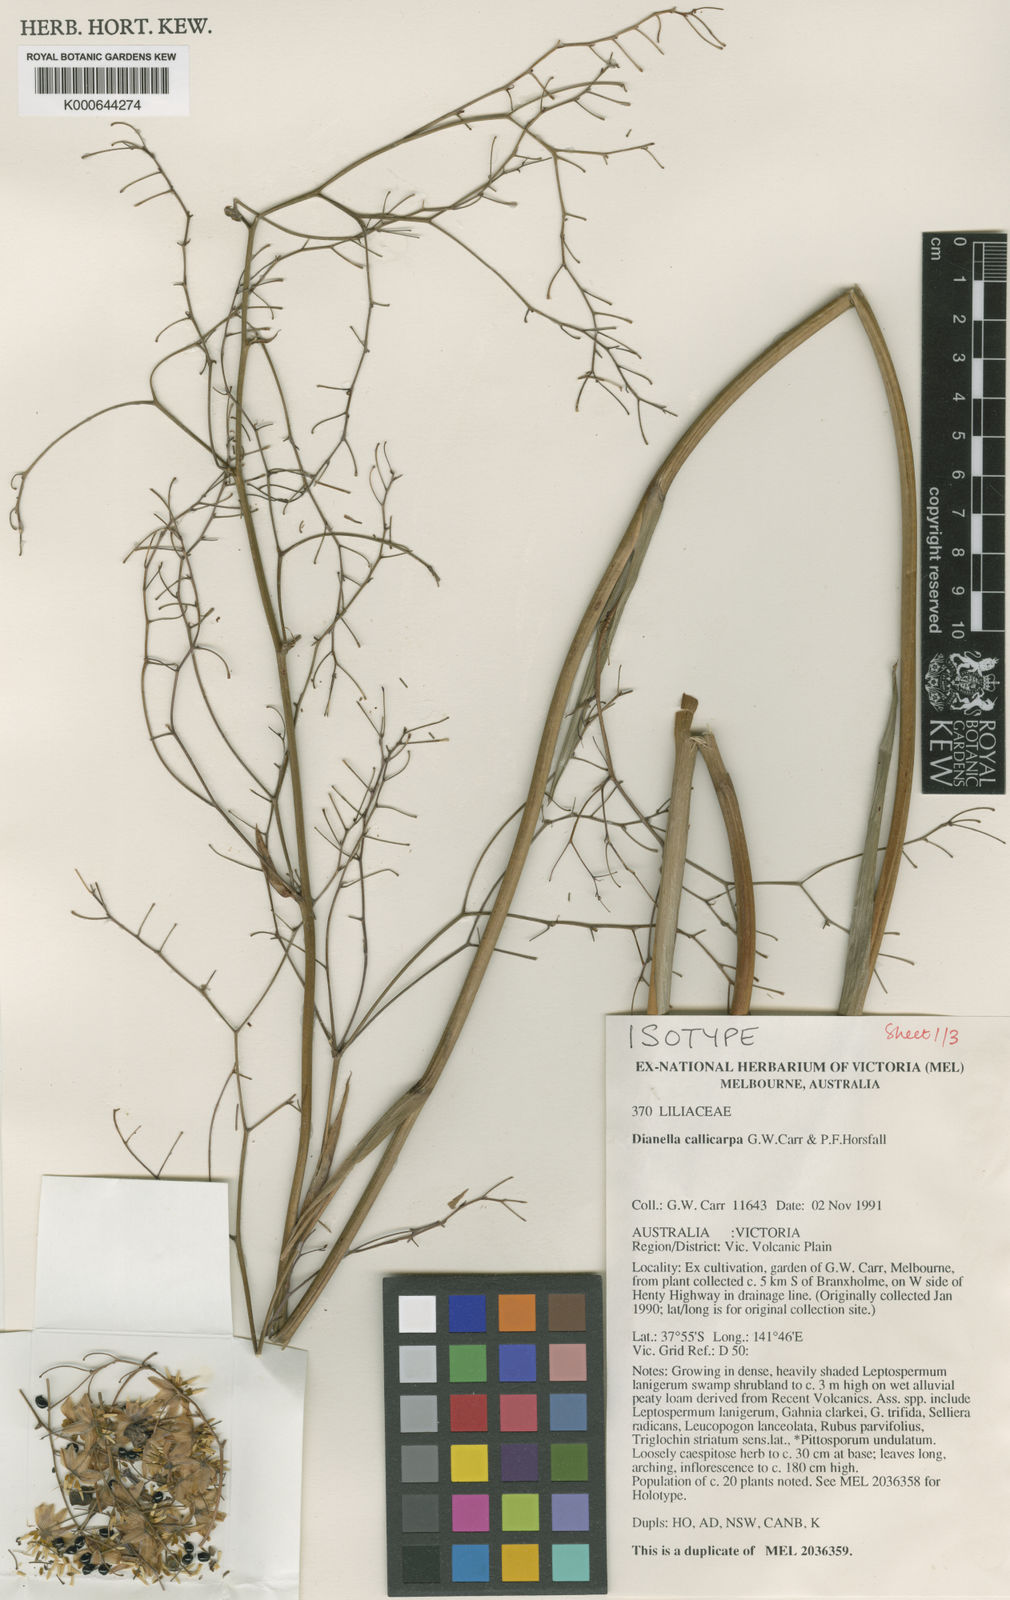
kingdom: Plantae
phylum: Tracheophyta
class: Liliopsida
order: Asparagales
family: Asphodelaceae
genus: Dianella
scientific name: Dianella callicarpa
